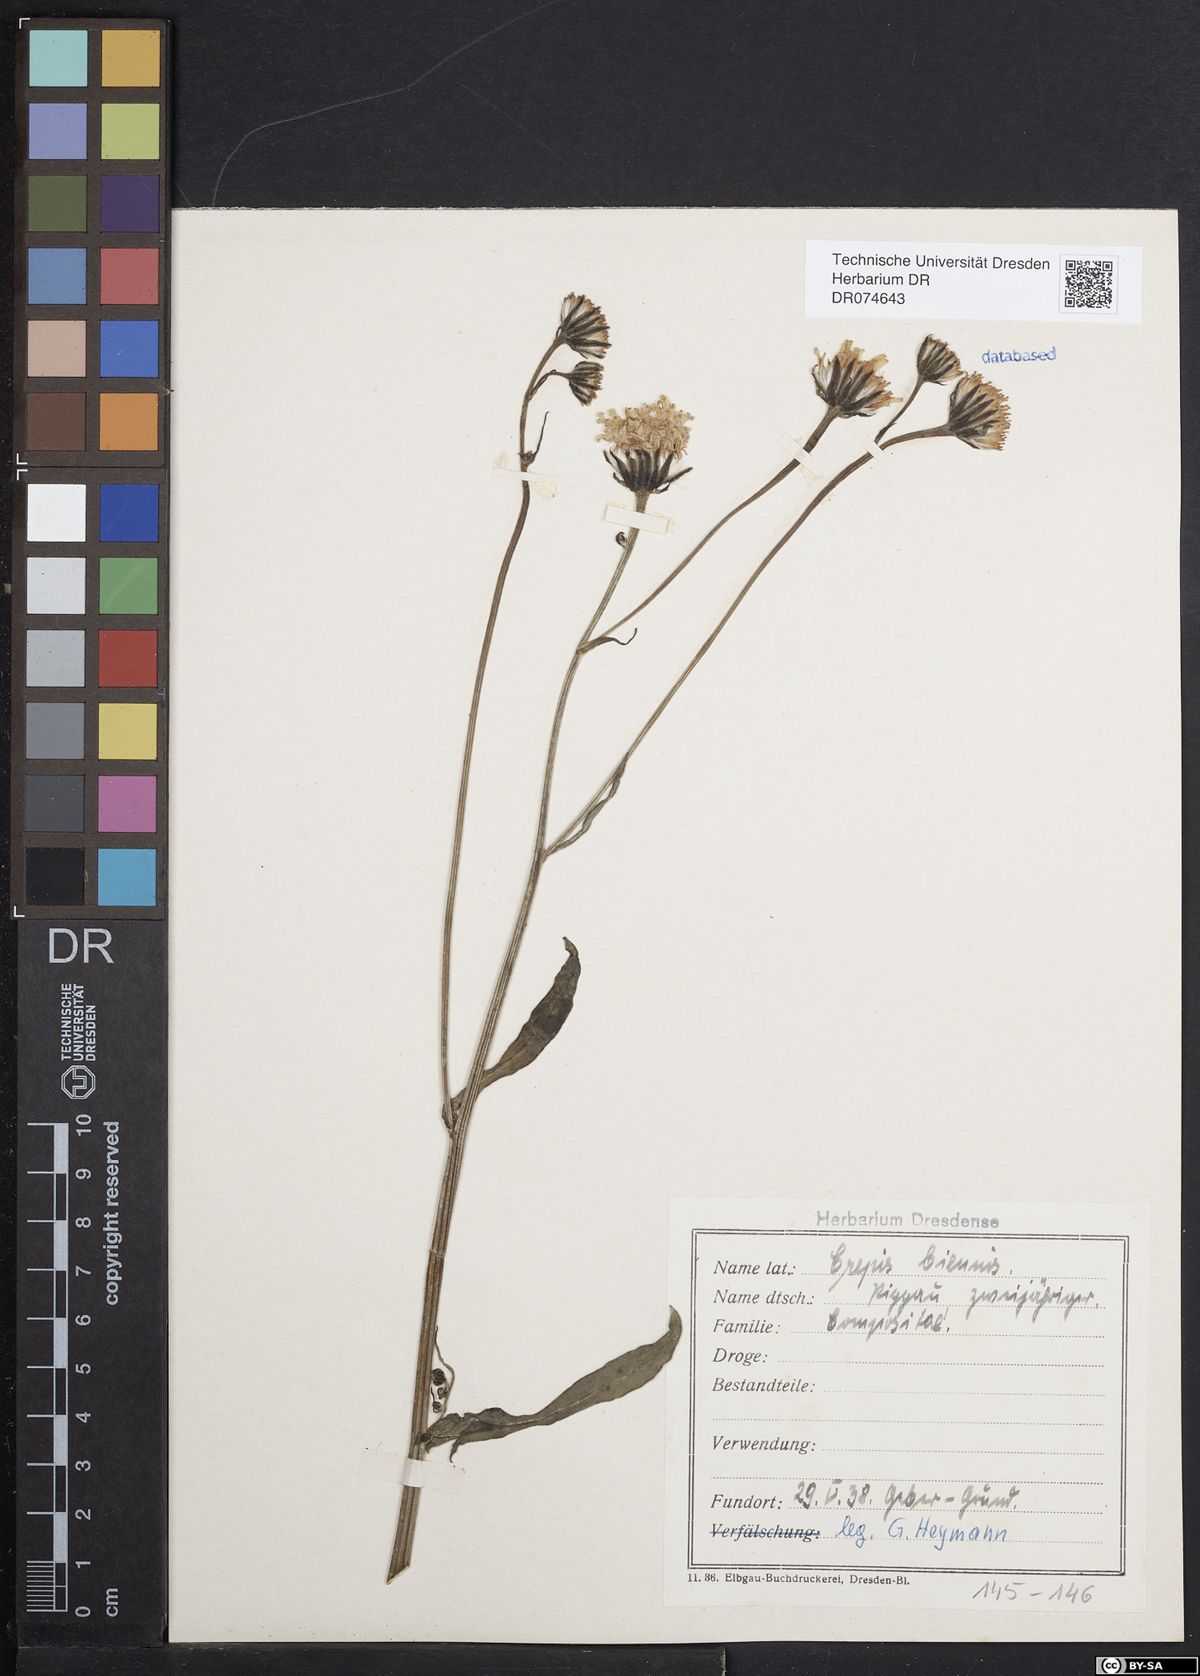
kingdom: Plantae
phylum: Tracheophyta
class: Magnoliopsida
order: Asterales
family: Asteraceae
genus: Crepis
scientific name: Crepis biennis
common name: Rough hawk's-beard
